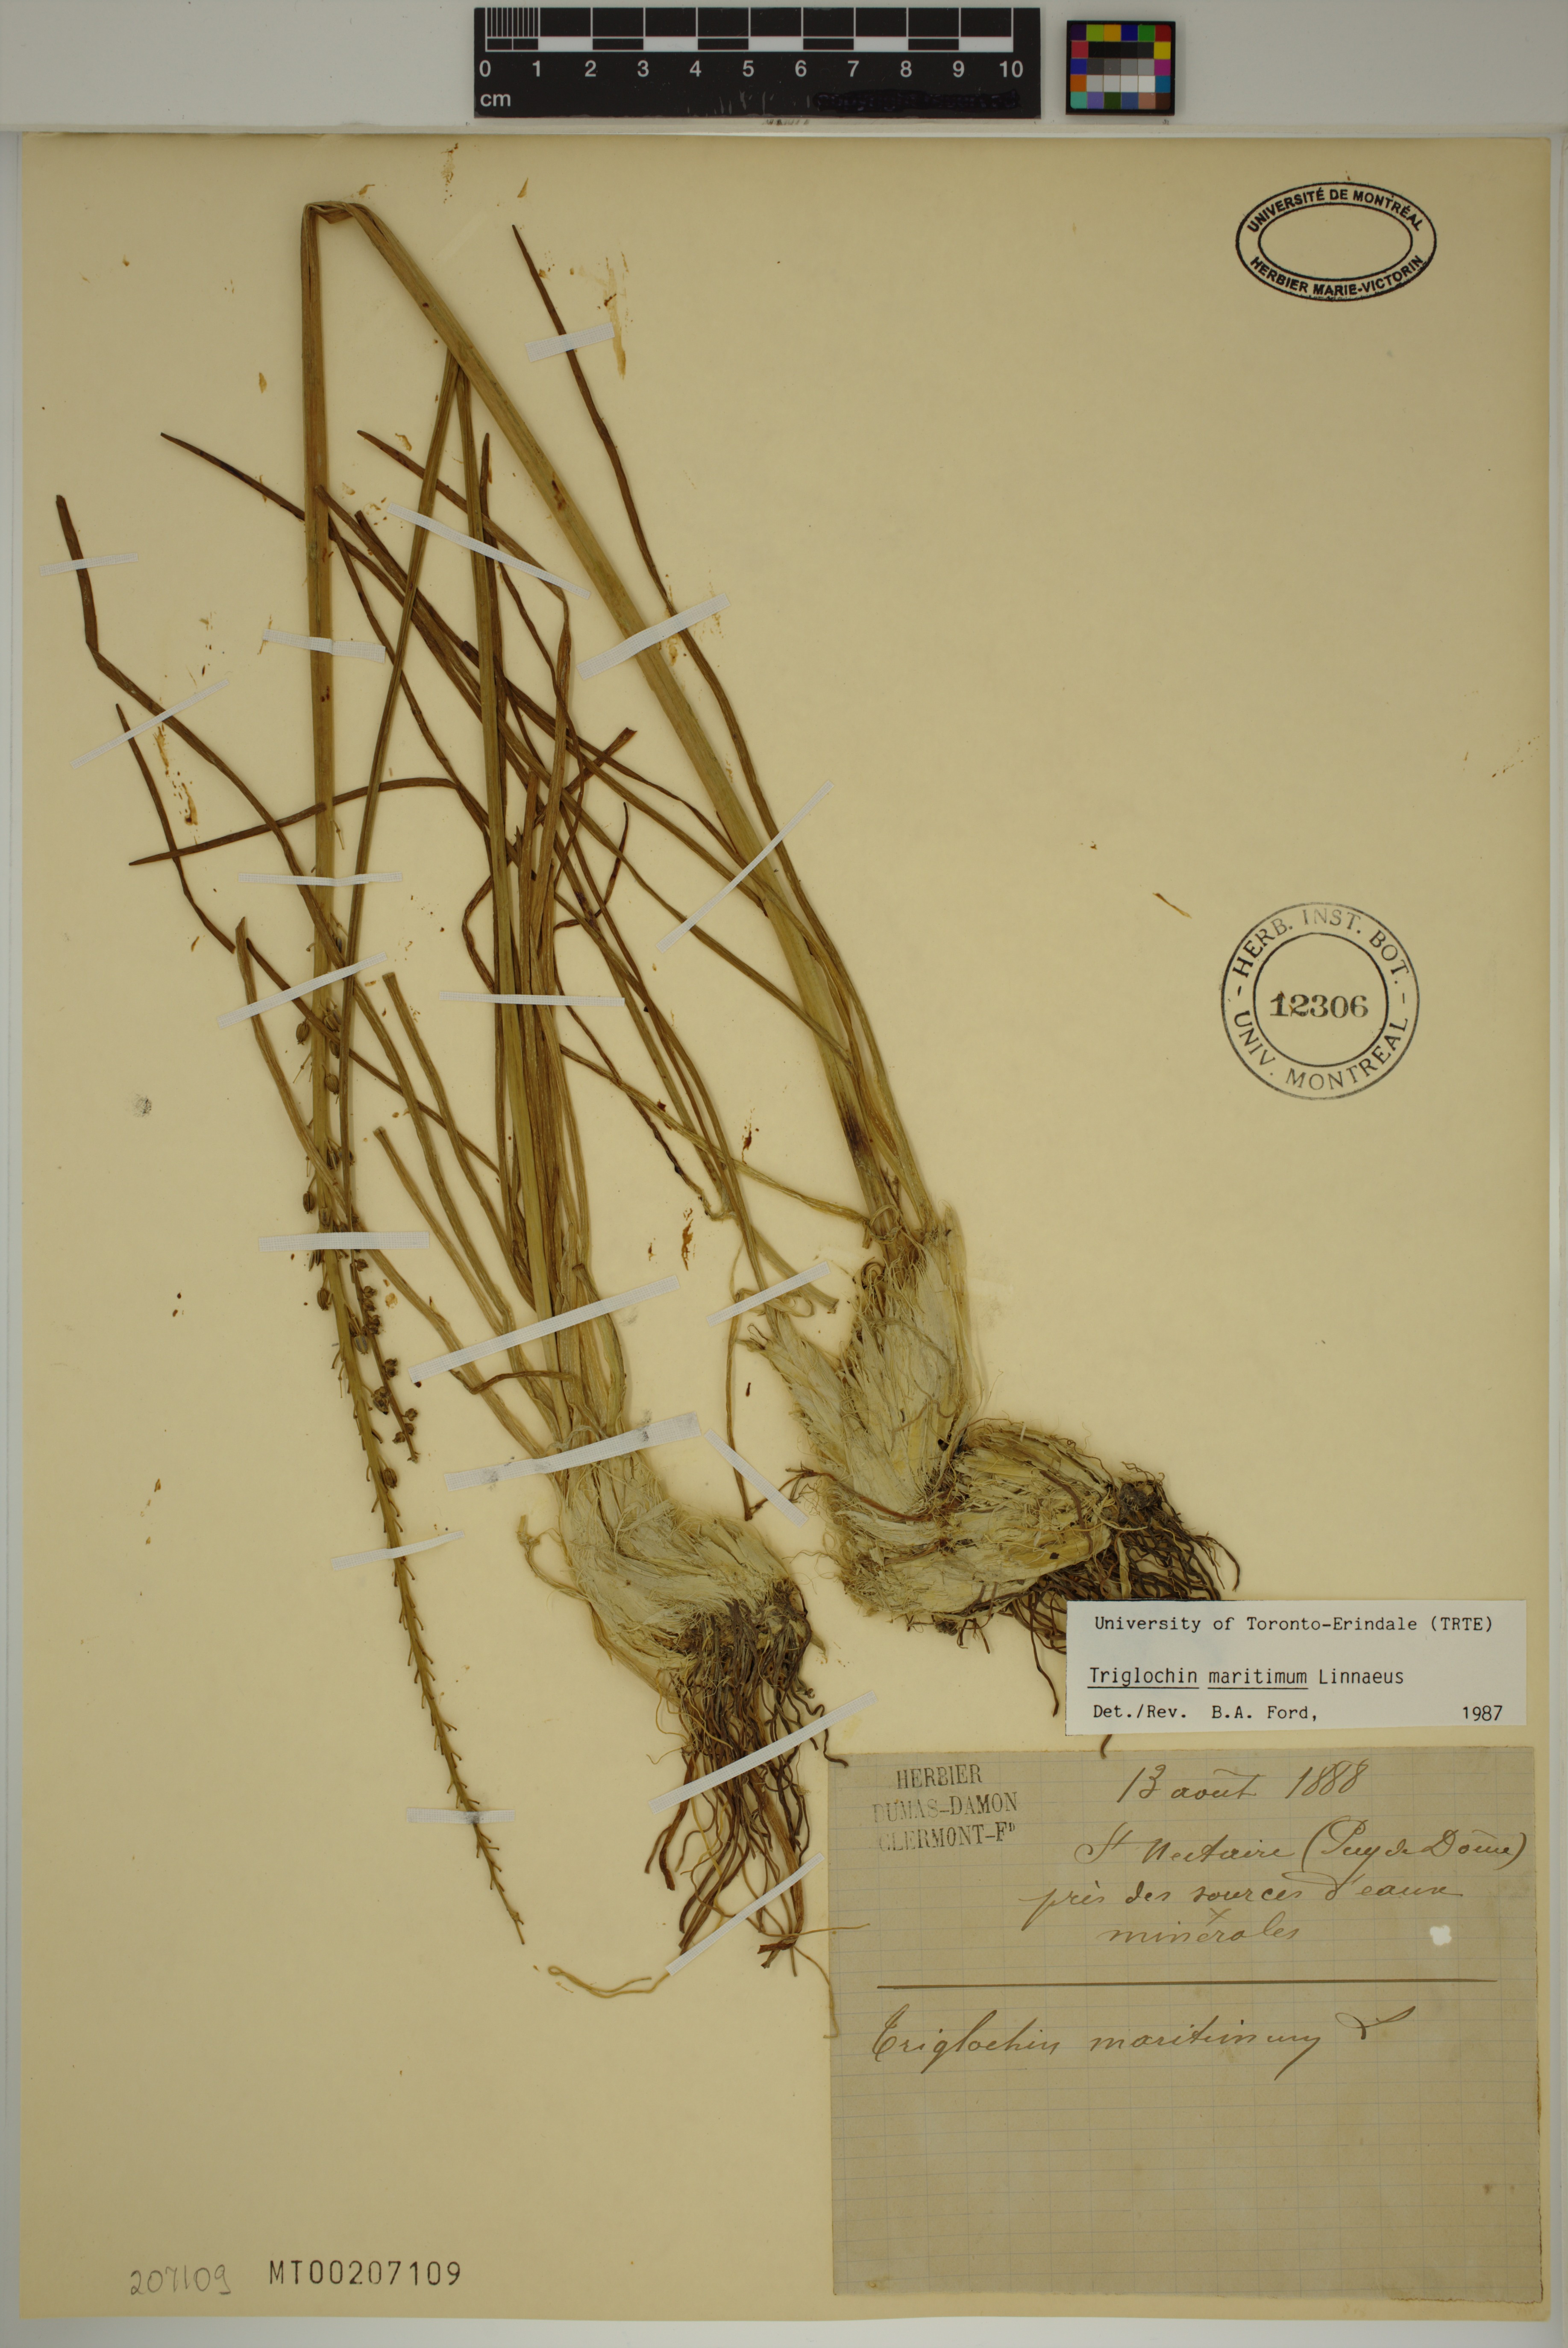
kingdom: Plantae
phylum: Tracheophyta
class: Liliopsida
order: Alismatales
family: Juncaginaceae
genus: Triglochin
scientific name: Triglochin maritima
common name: Sea arrowgrass
